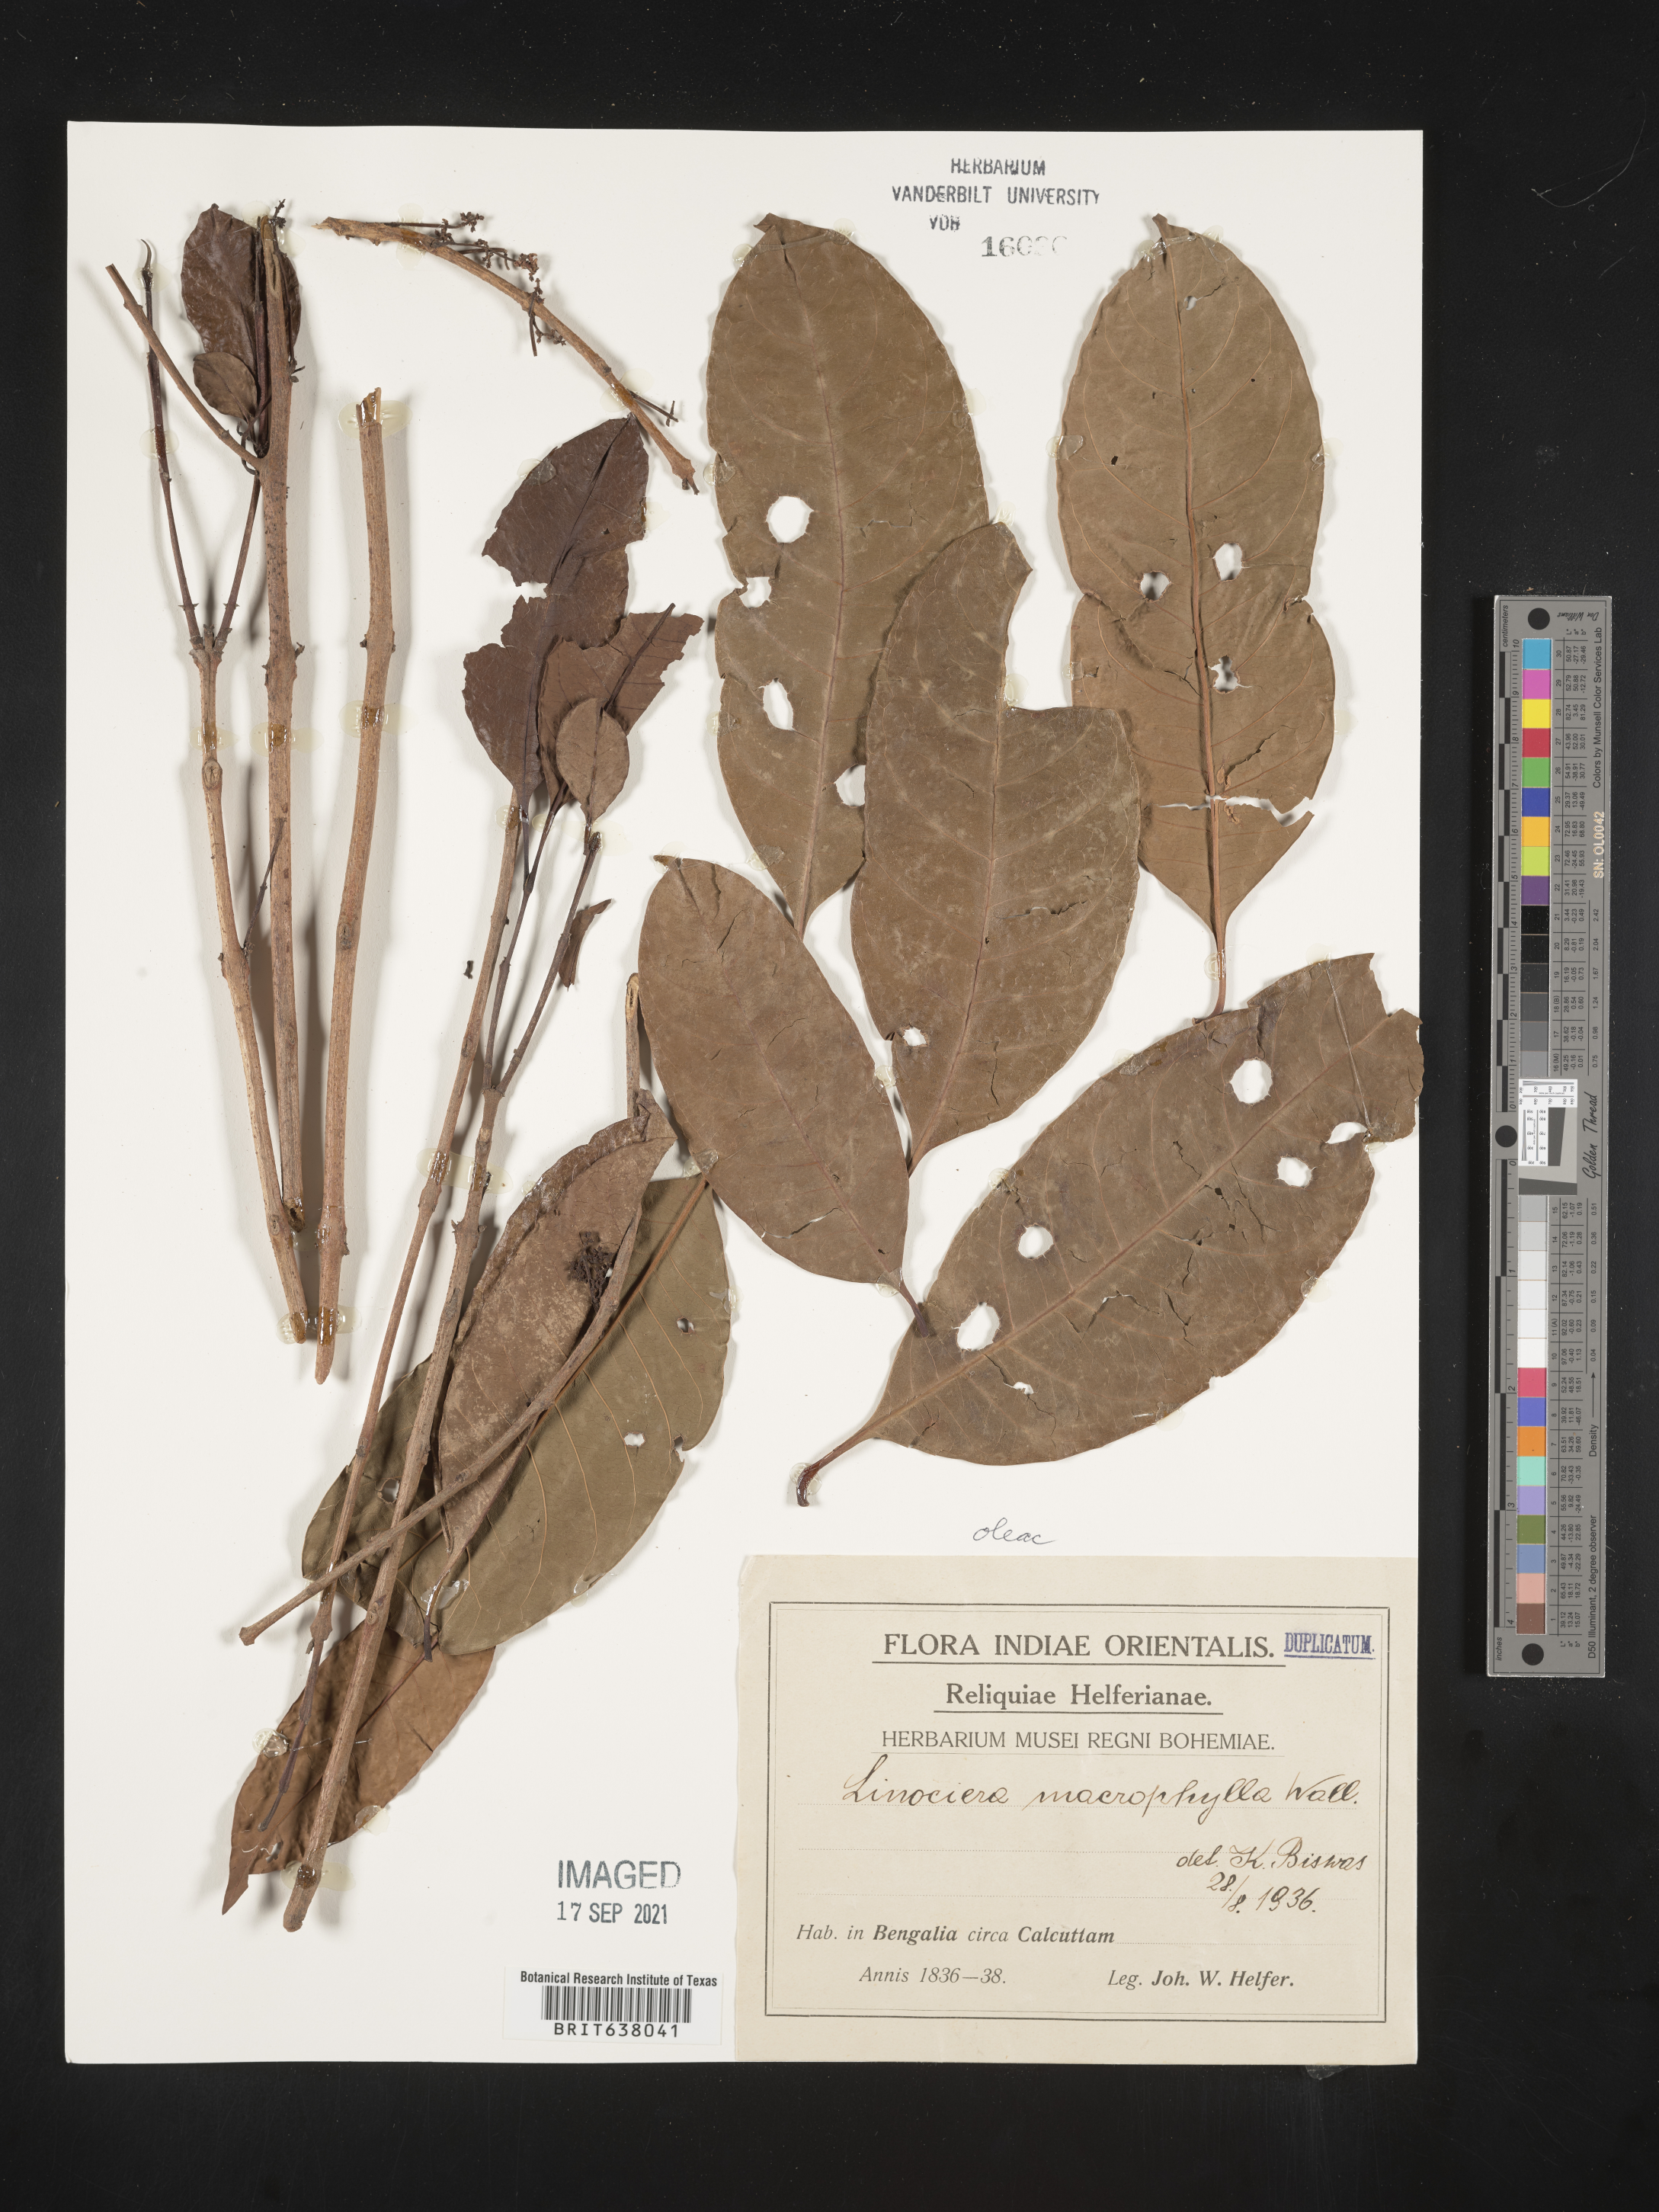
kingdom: Plantae
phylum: Tracheophyta
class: Magnoliopsida
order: Lamiales
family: Oleaceae
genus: Chionanthus
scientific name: Chionanthus
